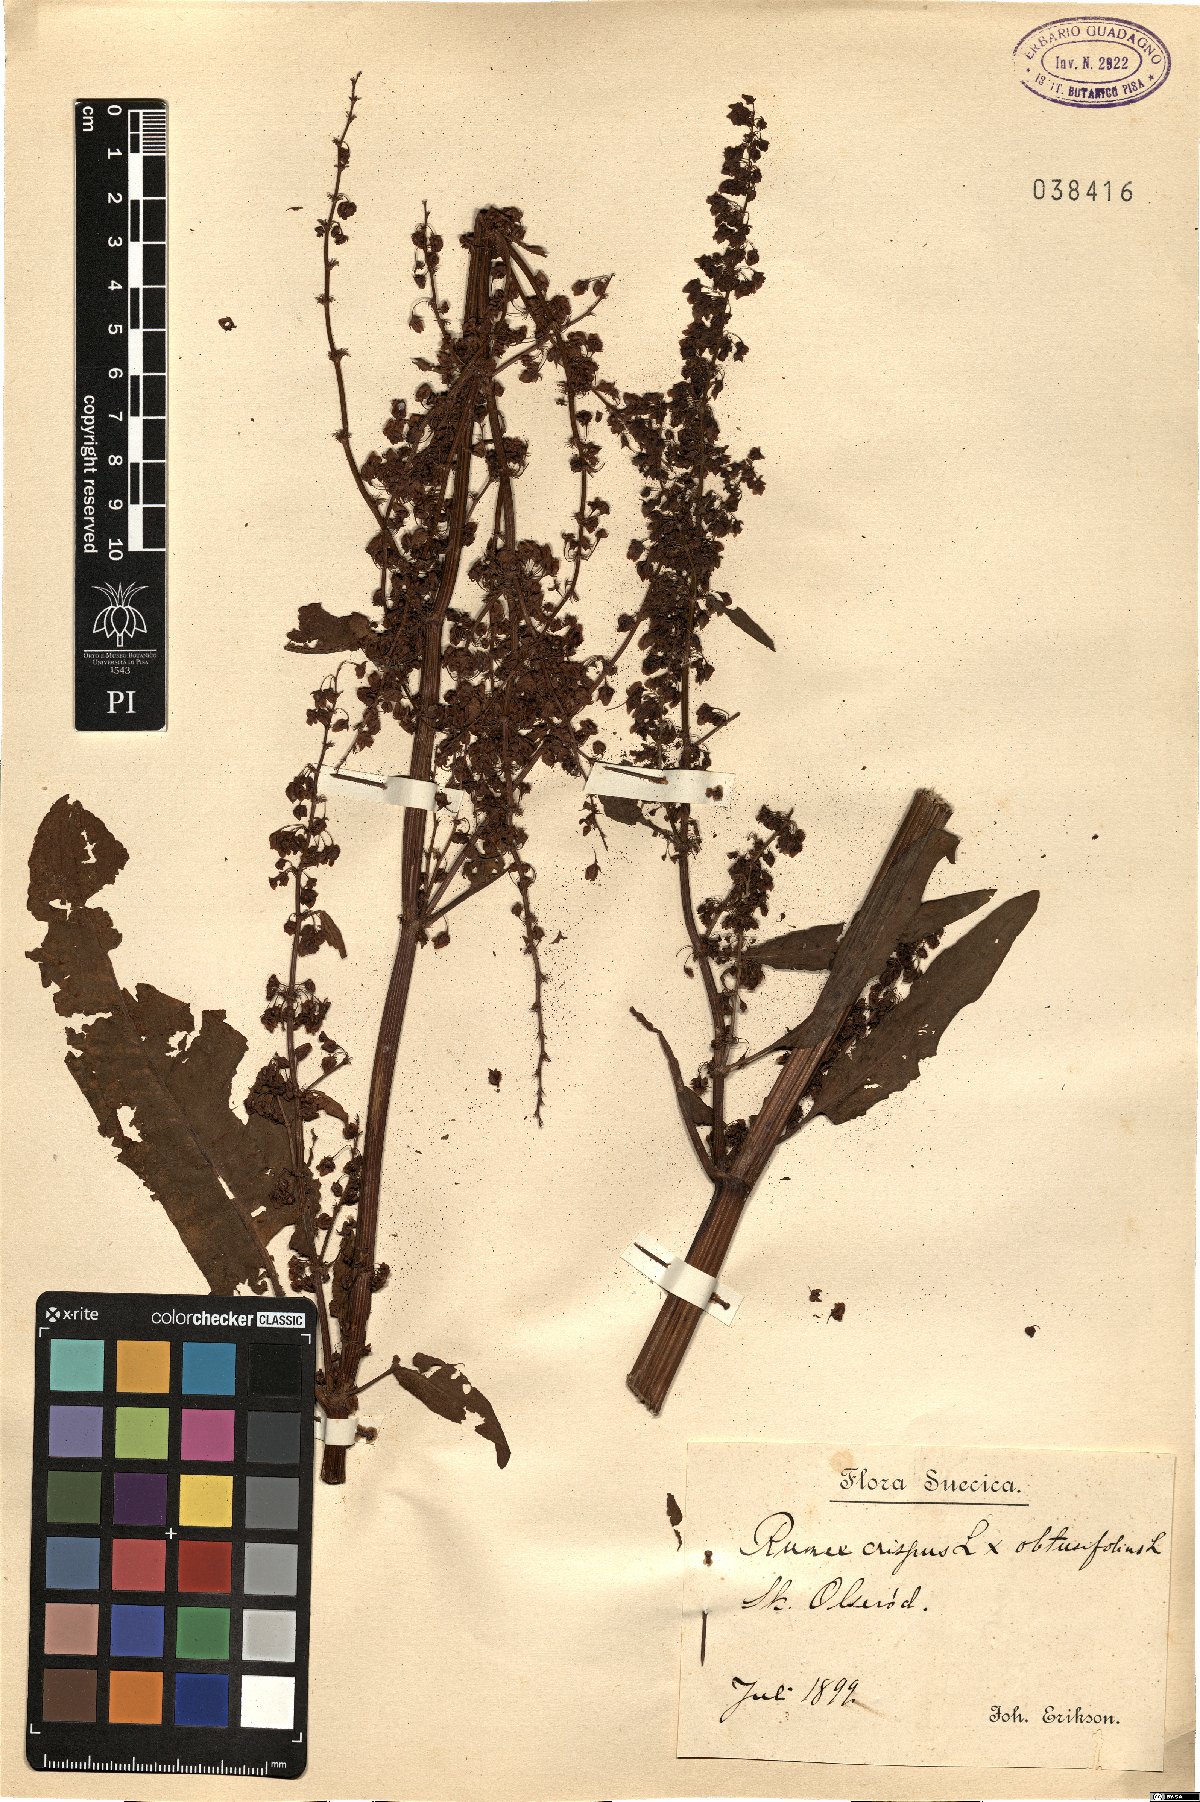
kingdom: Plantae
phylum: Tracheophyta
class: Magnoliopsida
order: Caryophyllales
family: Polygonaceae
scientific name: Polygonaceae
